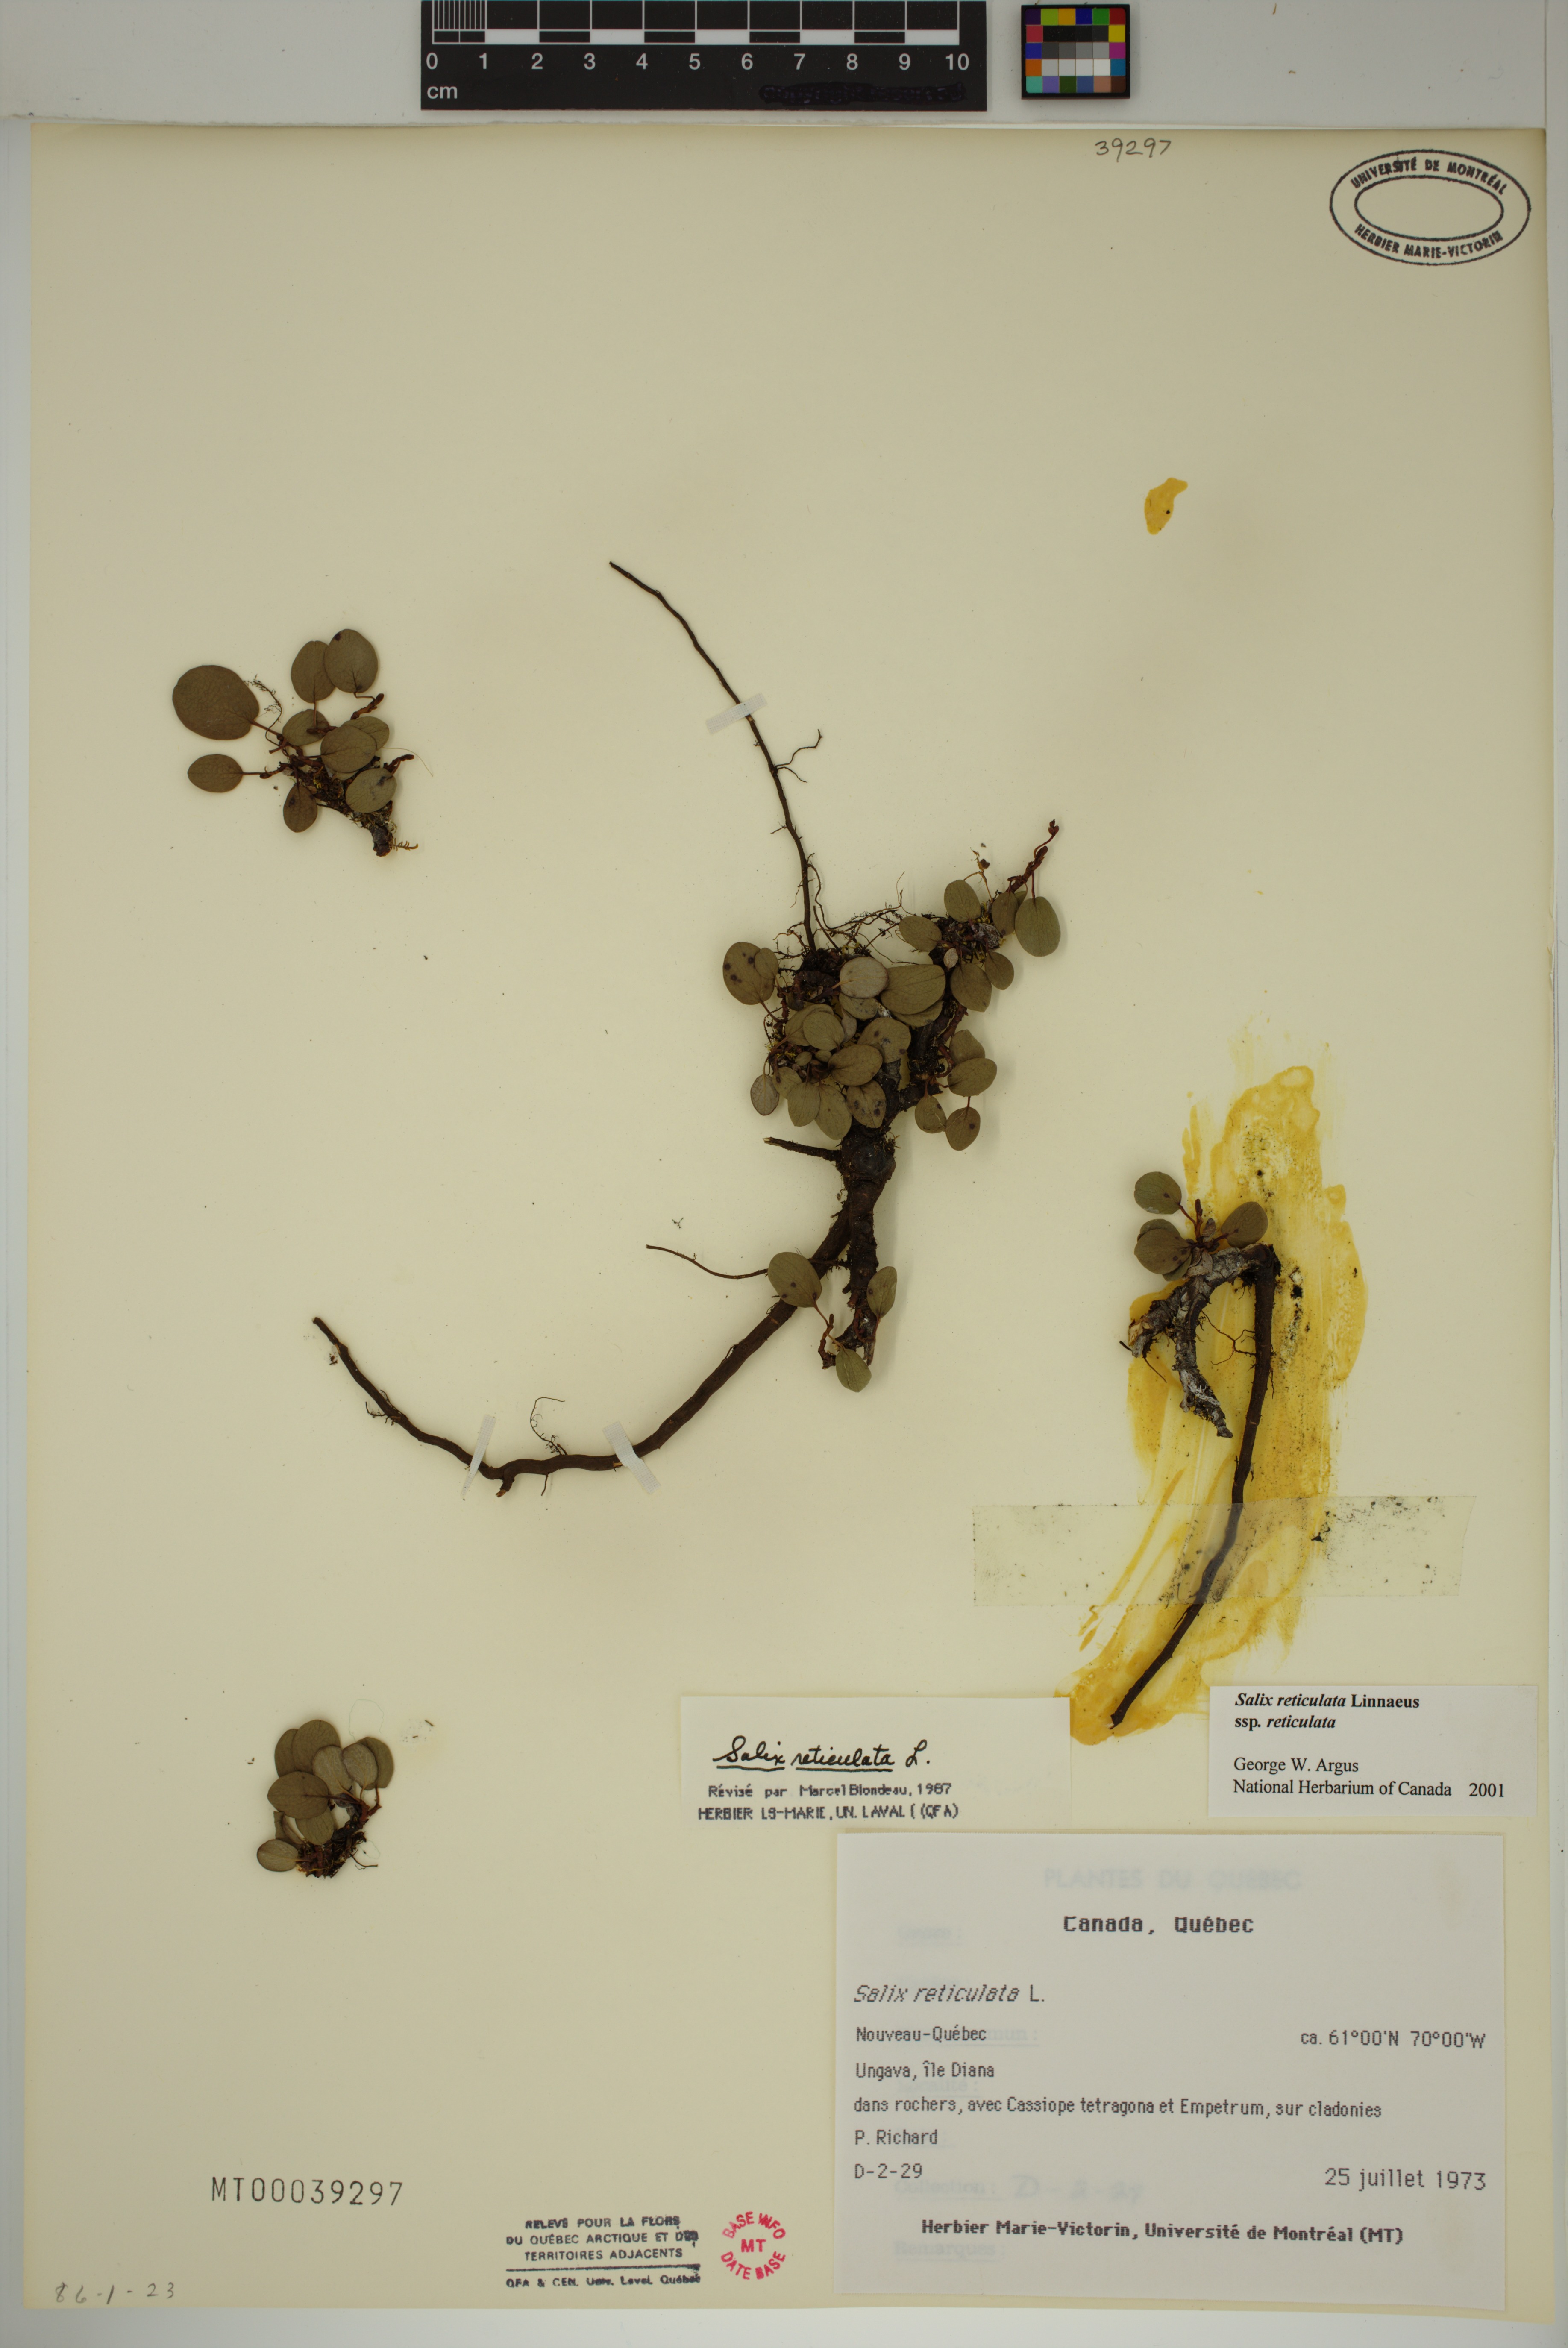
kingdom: Plantae
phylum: Tracheophyta
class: Magnoliopsida
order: Malpighiales
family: Salicaceae
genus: Salix
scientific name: Salix reticulata
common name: Net-leaved willow
